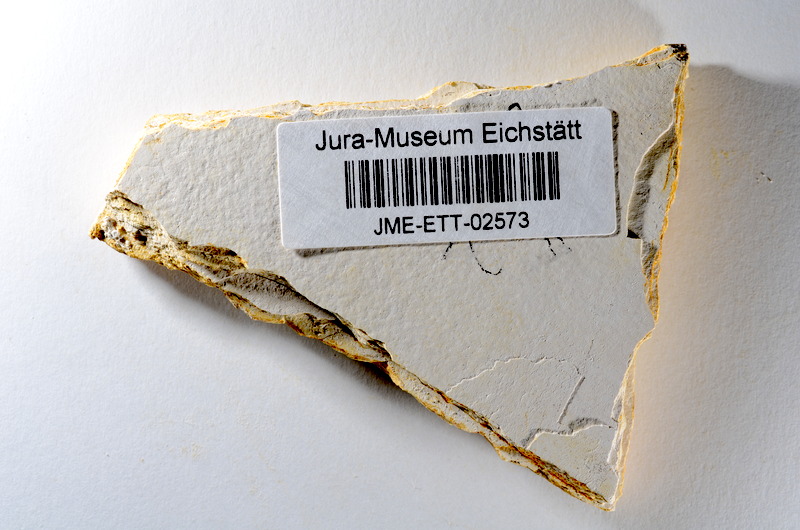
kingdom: Animalia
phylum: Chordata
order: Salmoniformes
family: Orthogonikleithridae
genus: Orthogonikleithrus
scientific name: Orthogonikleithrus hoelli
